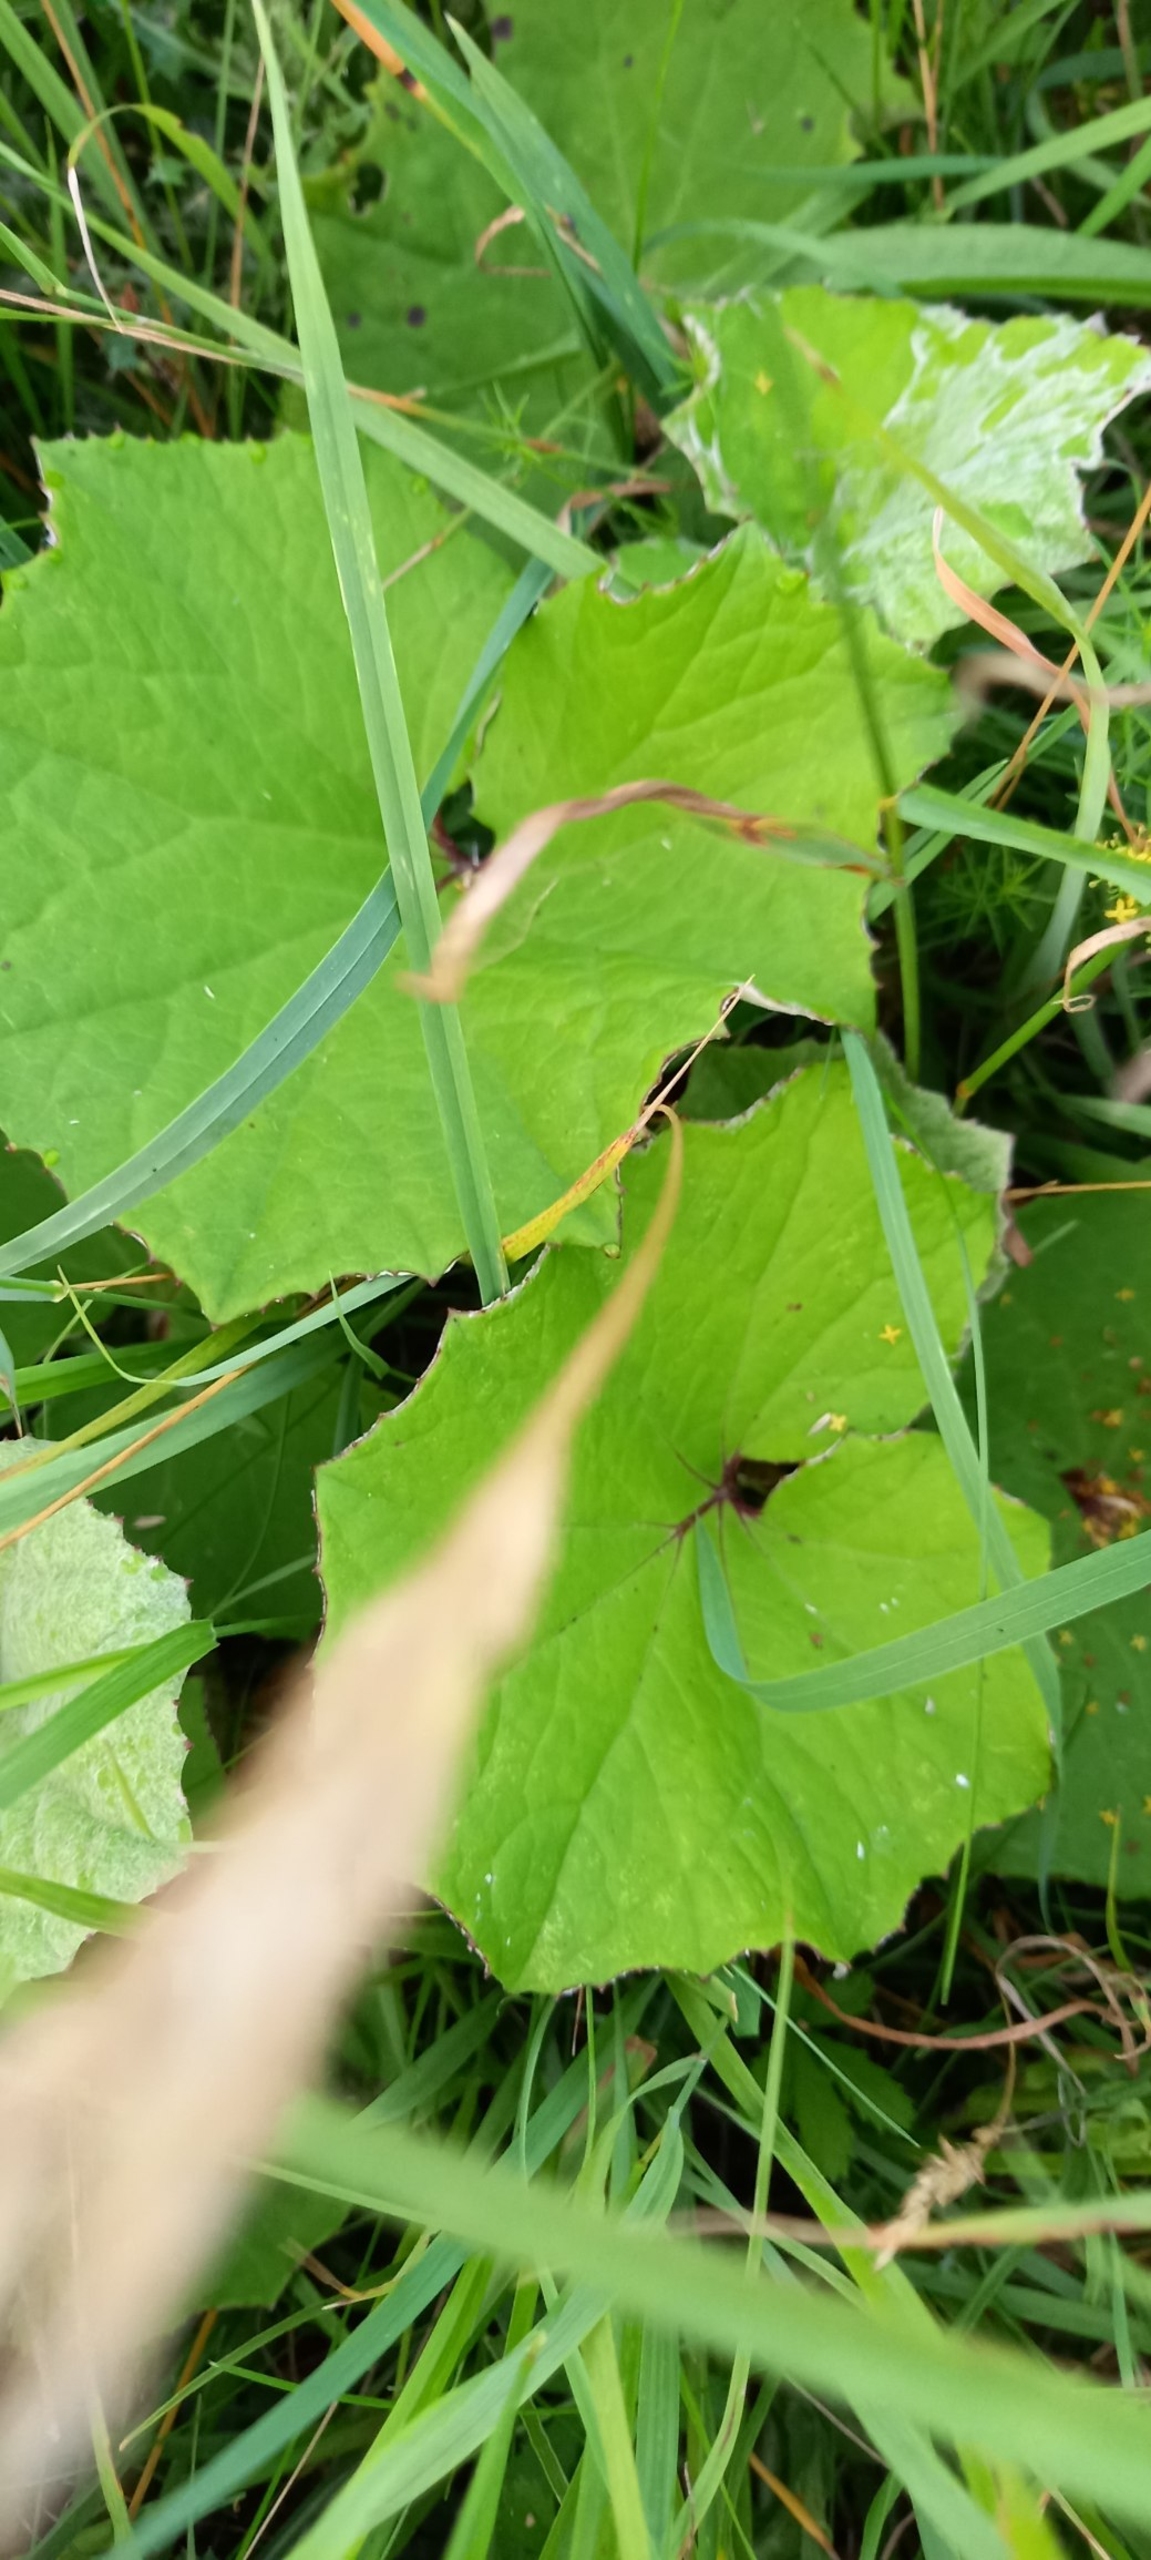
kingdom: Plantae
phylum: Tracheophyta
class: Magnoliopsida
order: Asterales
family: Asteraceae
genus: Tussilago
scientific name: Tussilago farfara
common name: Følfod
